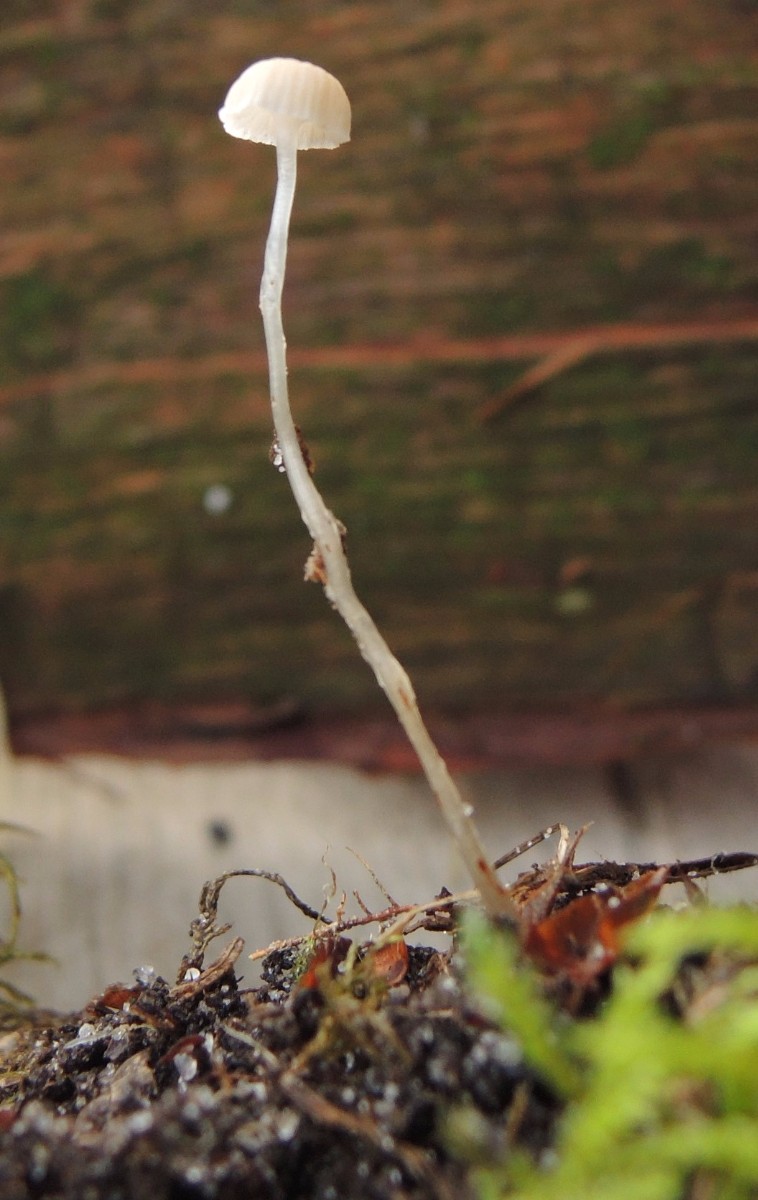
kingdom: Fungi
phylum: Basidiomycota
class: Agaricomycetes
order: Agaricales
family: Mycenaceae
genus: Roridomyces
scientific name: Roridomyces roridus
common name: slimfod
